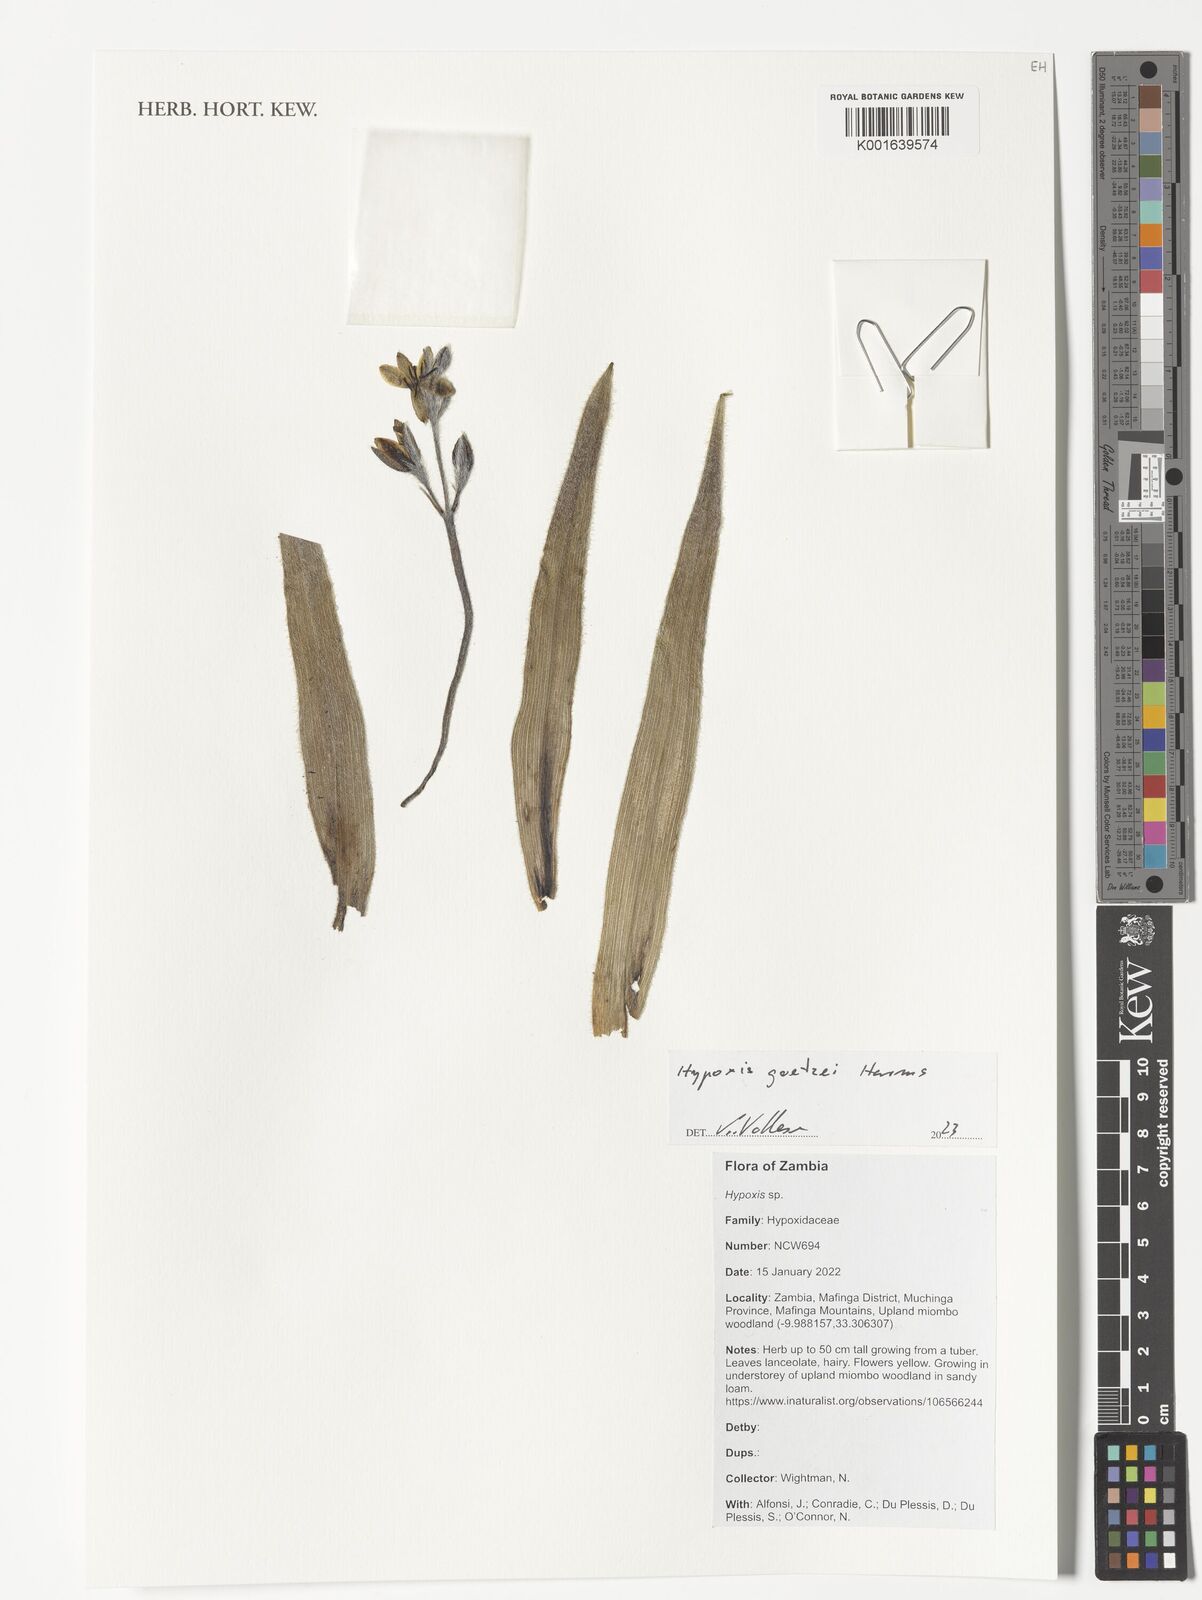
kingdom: Plantae
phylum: Tracheophyta
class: Liliopsida
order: Asparagales
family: Hypoxidaceae
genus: Hypoxis
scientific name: Hypoxis goetzei
